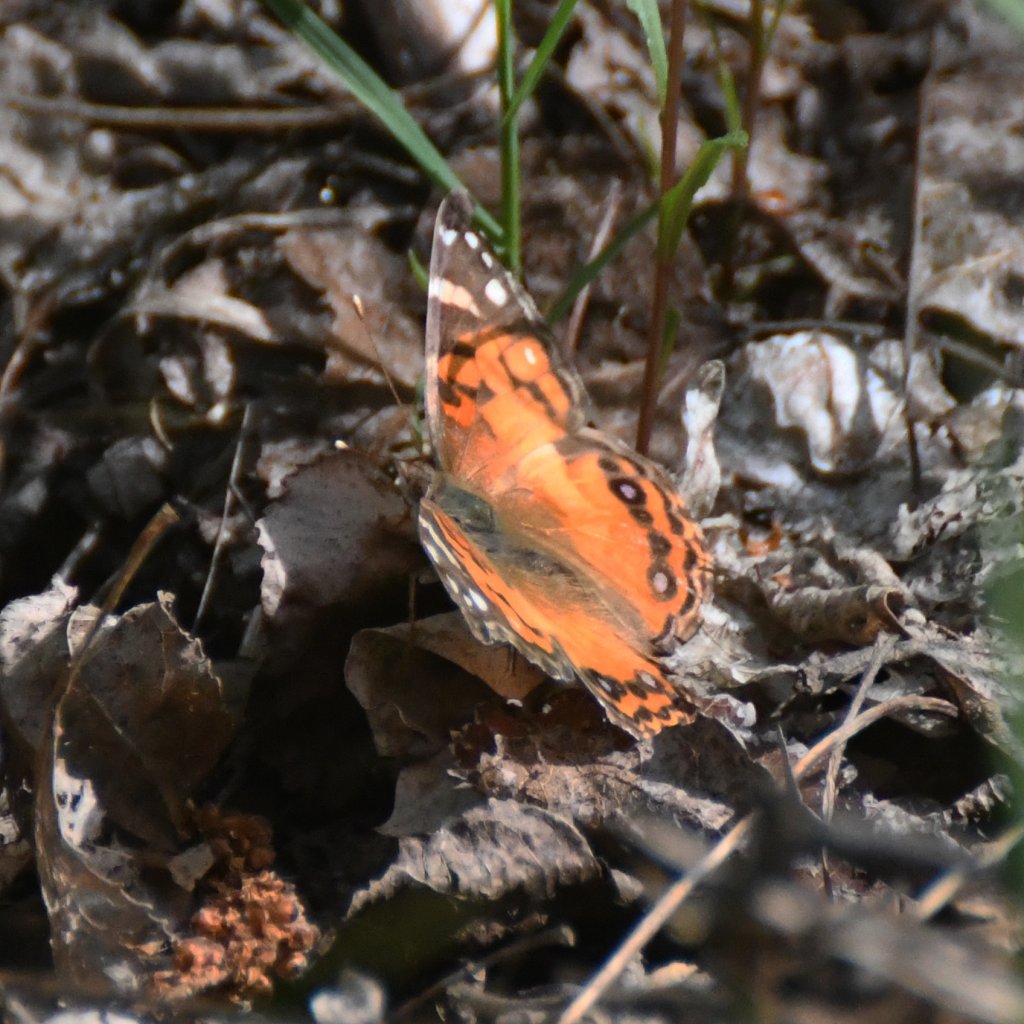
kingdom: Animalia
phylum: Arthropoda
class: Insecta
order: Lepidoptera
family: Nymphalidae
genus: Vanessa
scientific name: Vanessa virginiensis
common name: American Lady
